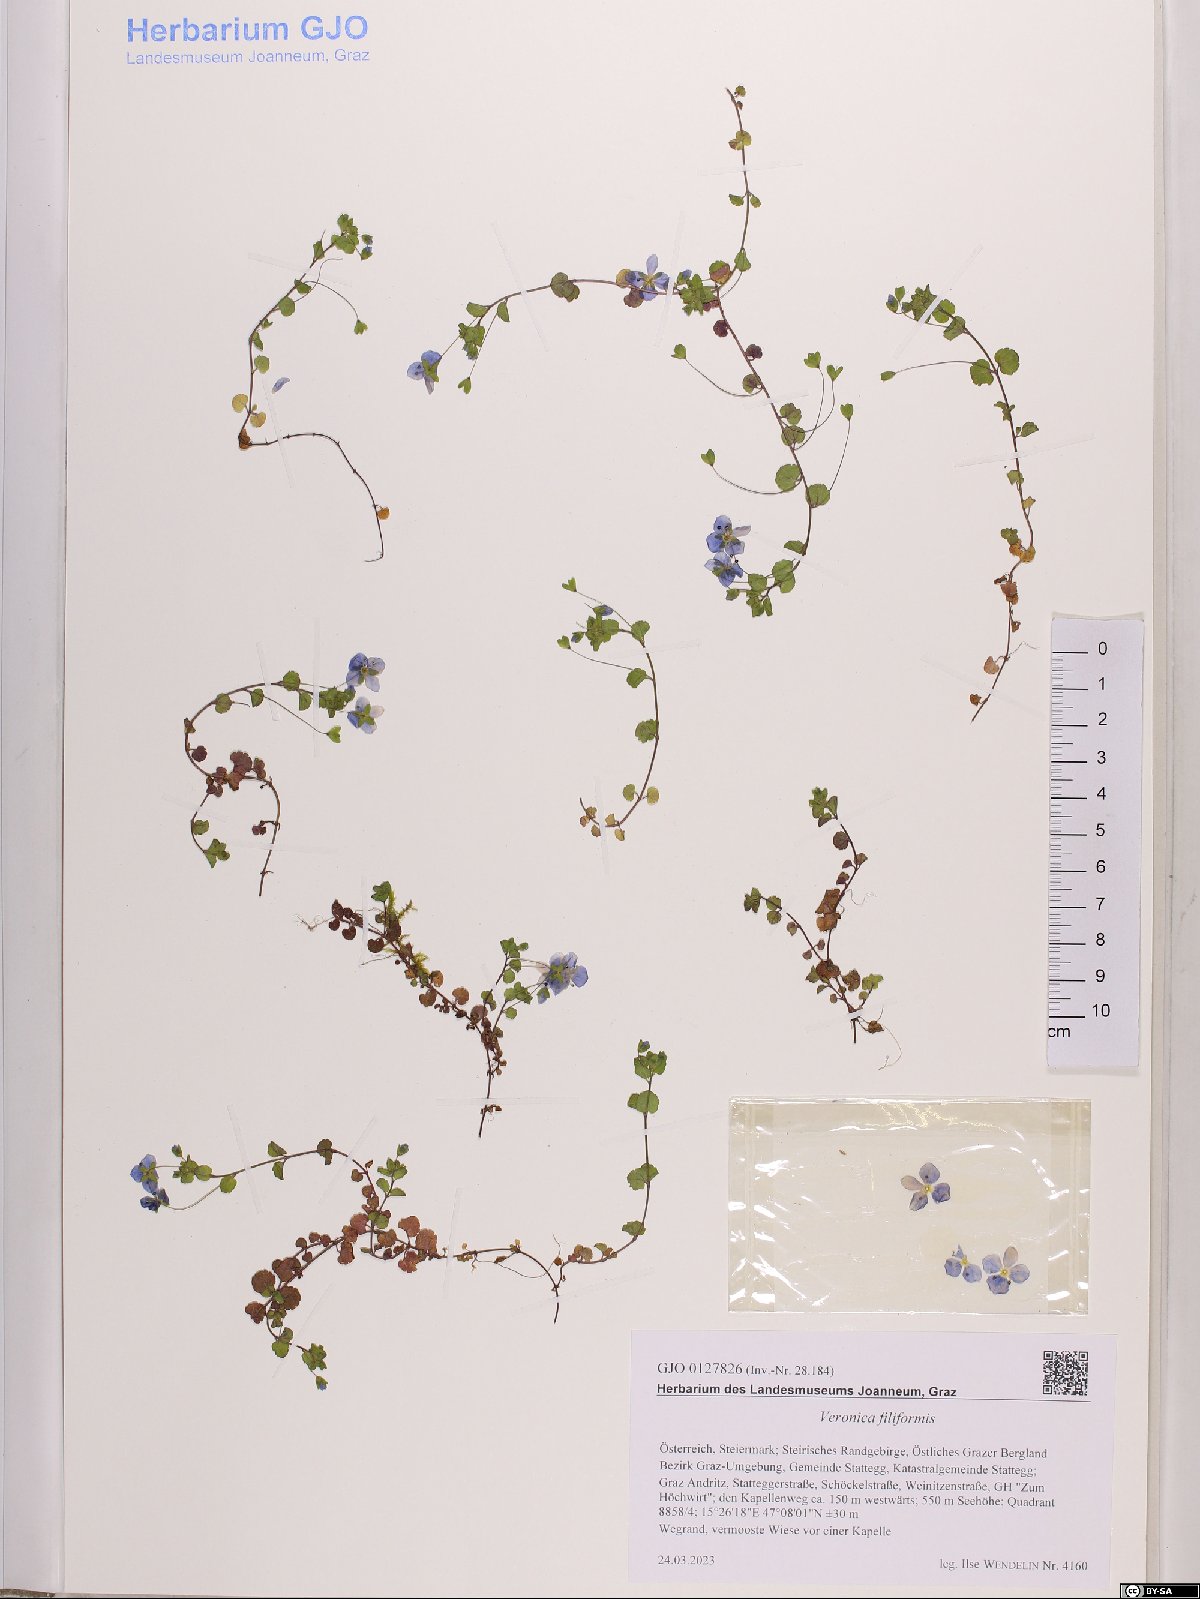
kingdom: Plantae
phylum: Tracheophyta
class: Magnoliopsida
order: Lamiales
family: Plantaginaceae
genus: Veronica
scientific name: Veronica filiformis
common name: Slender speedwell
